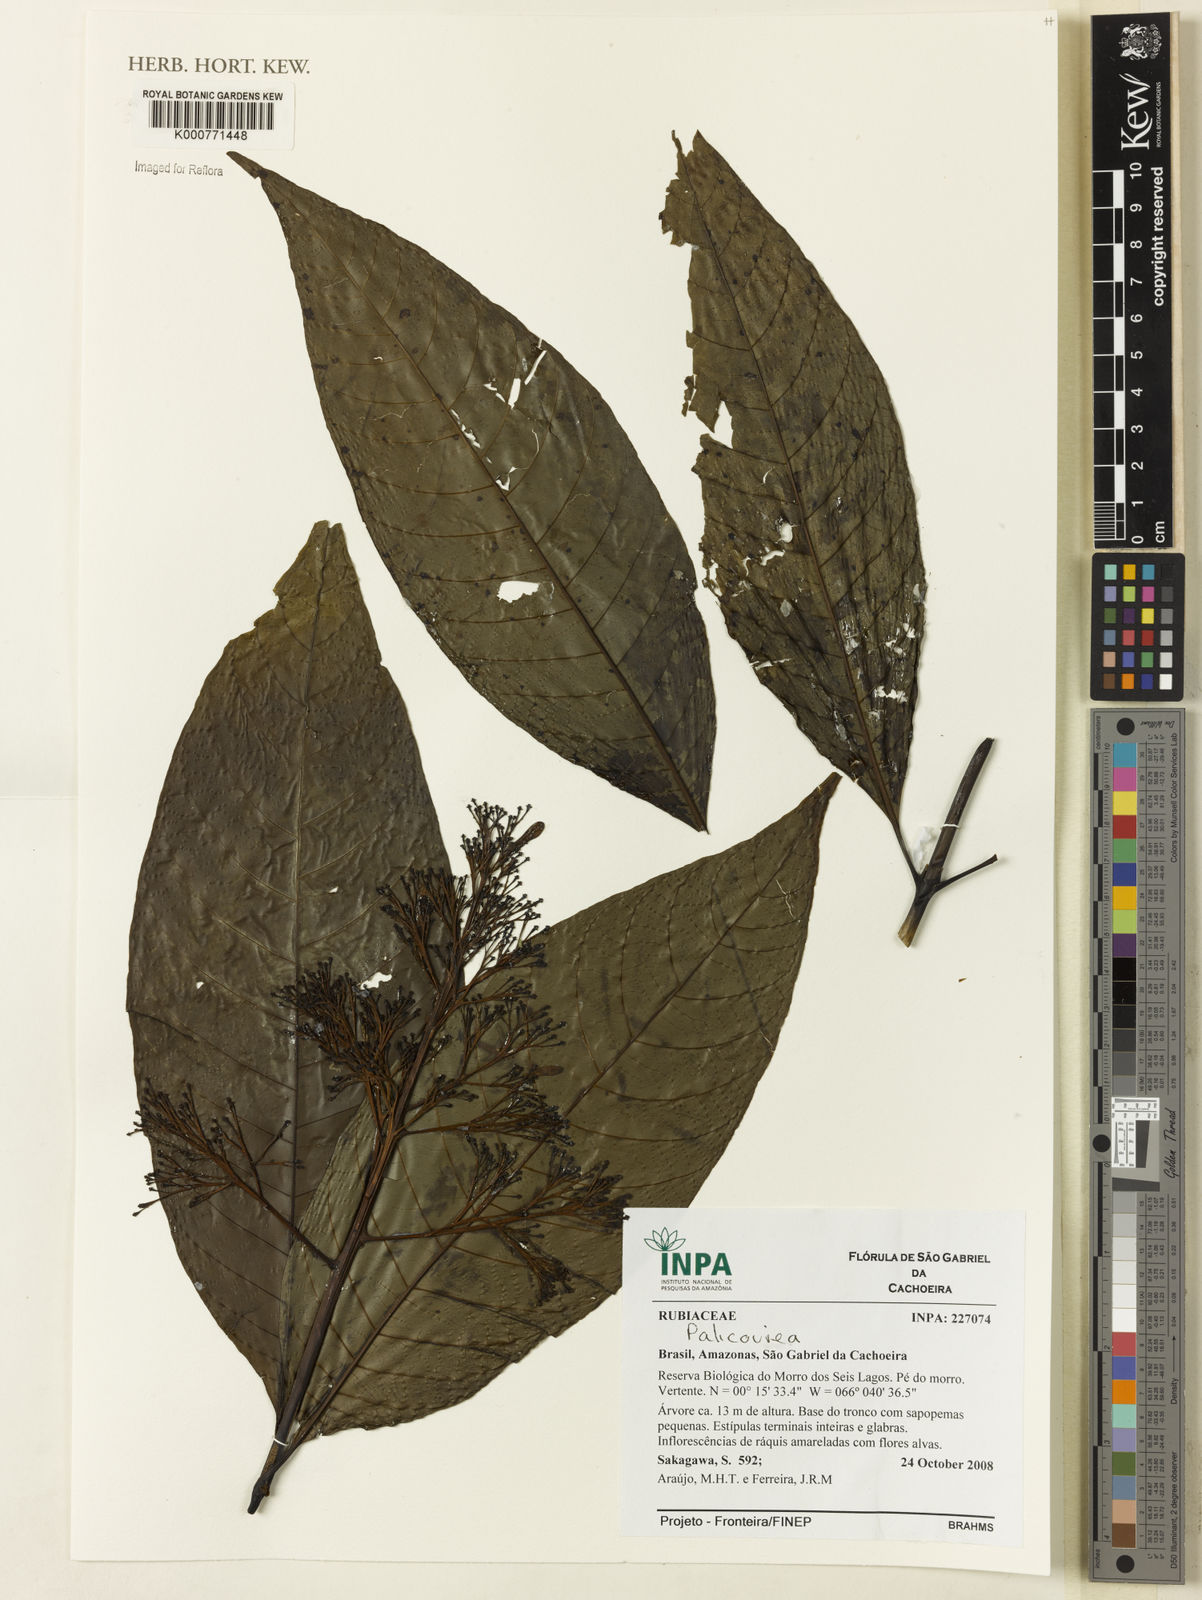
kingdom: Plantae
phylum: Tracheophyta
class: Magnoliopsida
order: Gentianales
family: Rubiaceae
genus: Palicourea
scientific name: Palicourea
